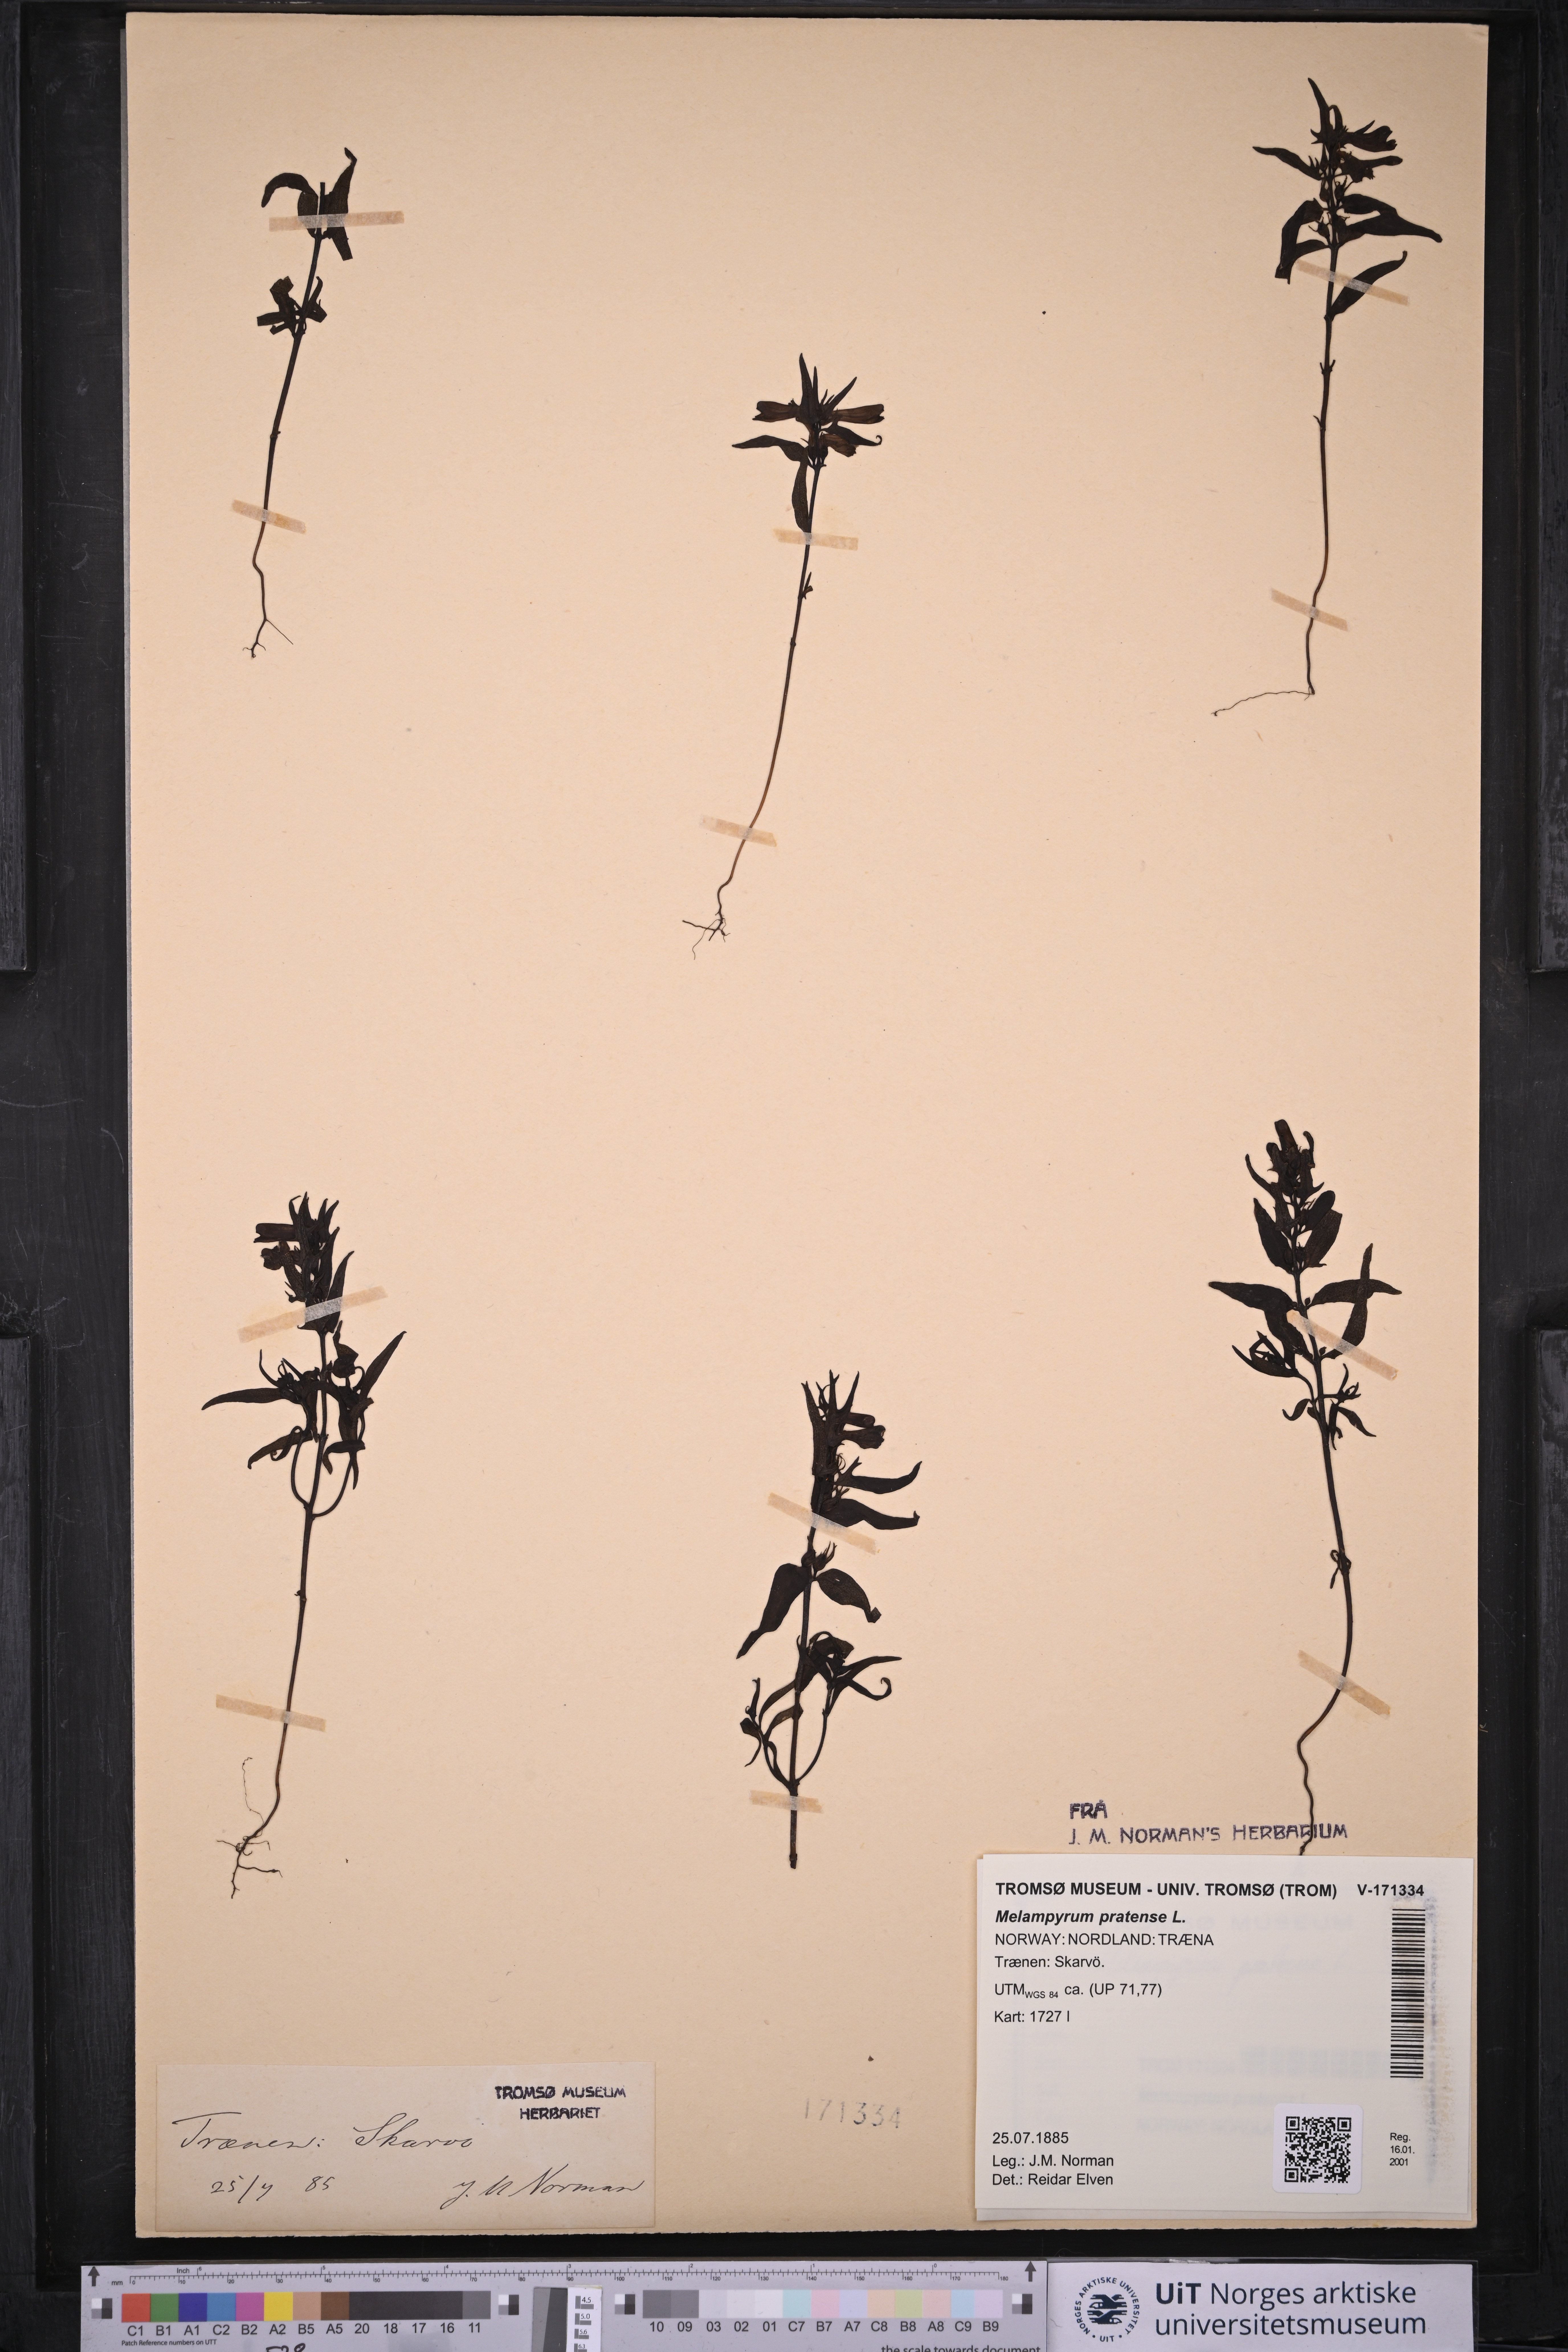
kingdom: Plantae
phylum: Tracheophyta
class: Magnoliopsida
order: Lamiales
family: Orobanchaceae
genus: Melampyrum
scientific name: Melampyrum pratense
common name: Common cow-wheat
